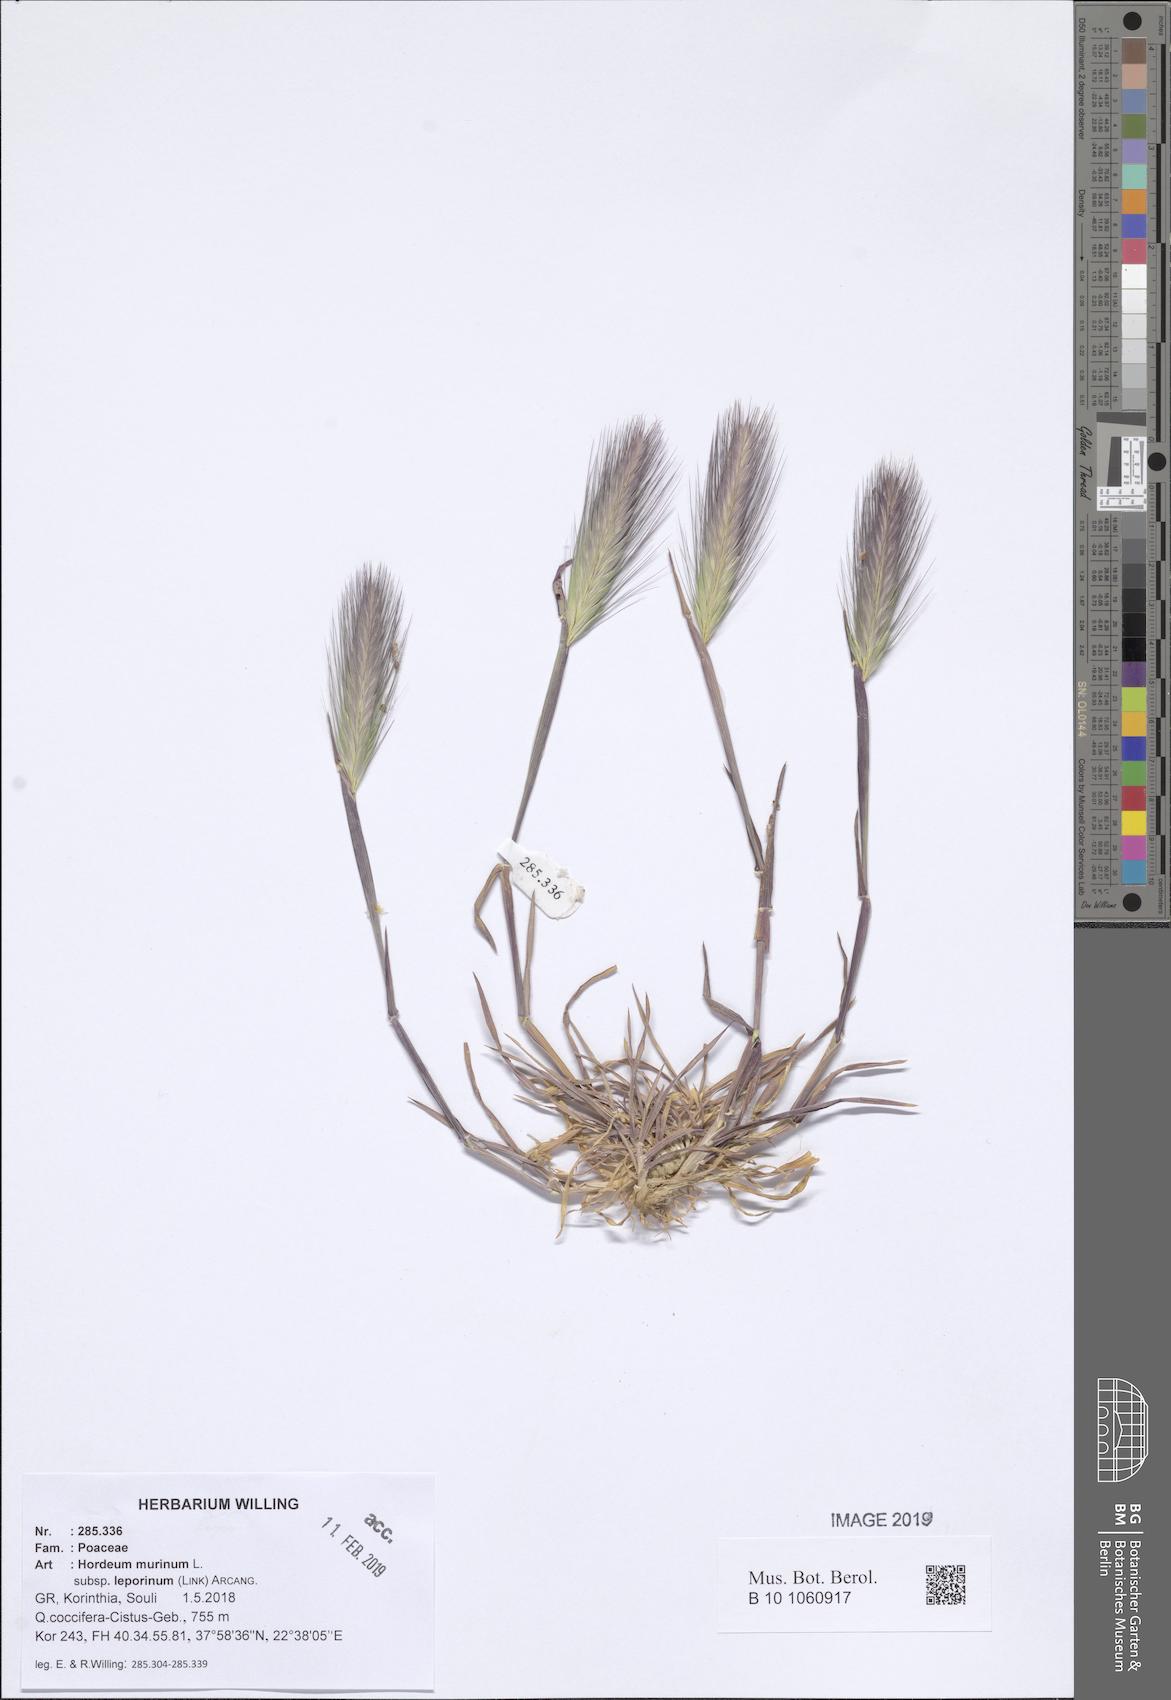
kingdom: Plantae
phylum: Tracheophyta
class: Liliopsida
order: Poales
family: Poaceae
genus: Hordeum
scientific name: Hordeum murinum
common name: Wall barley
